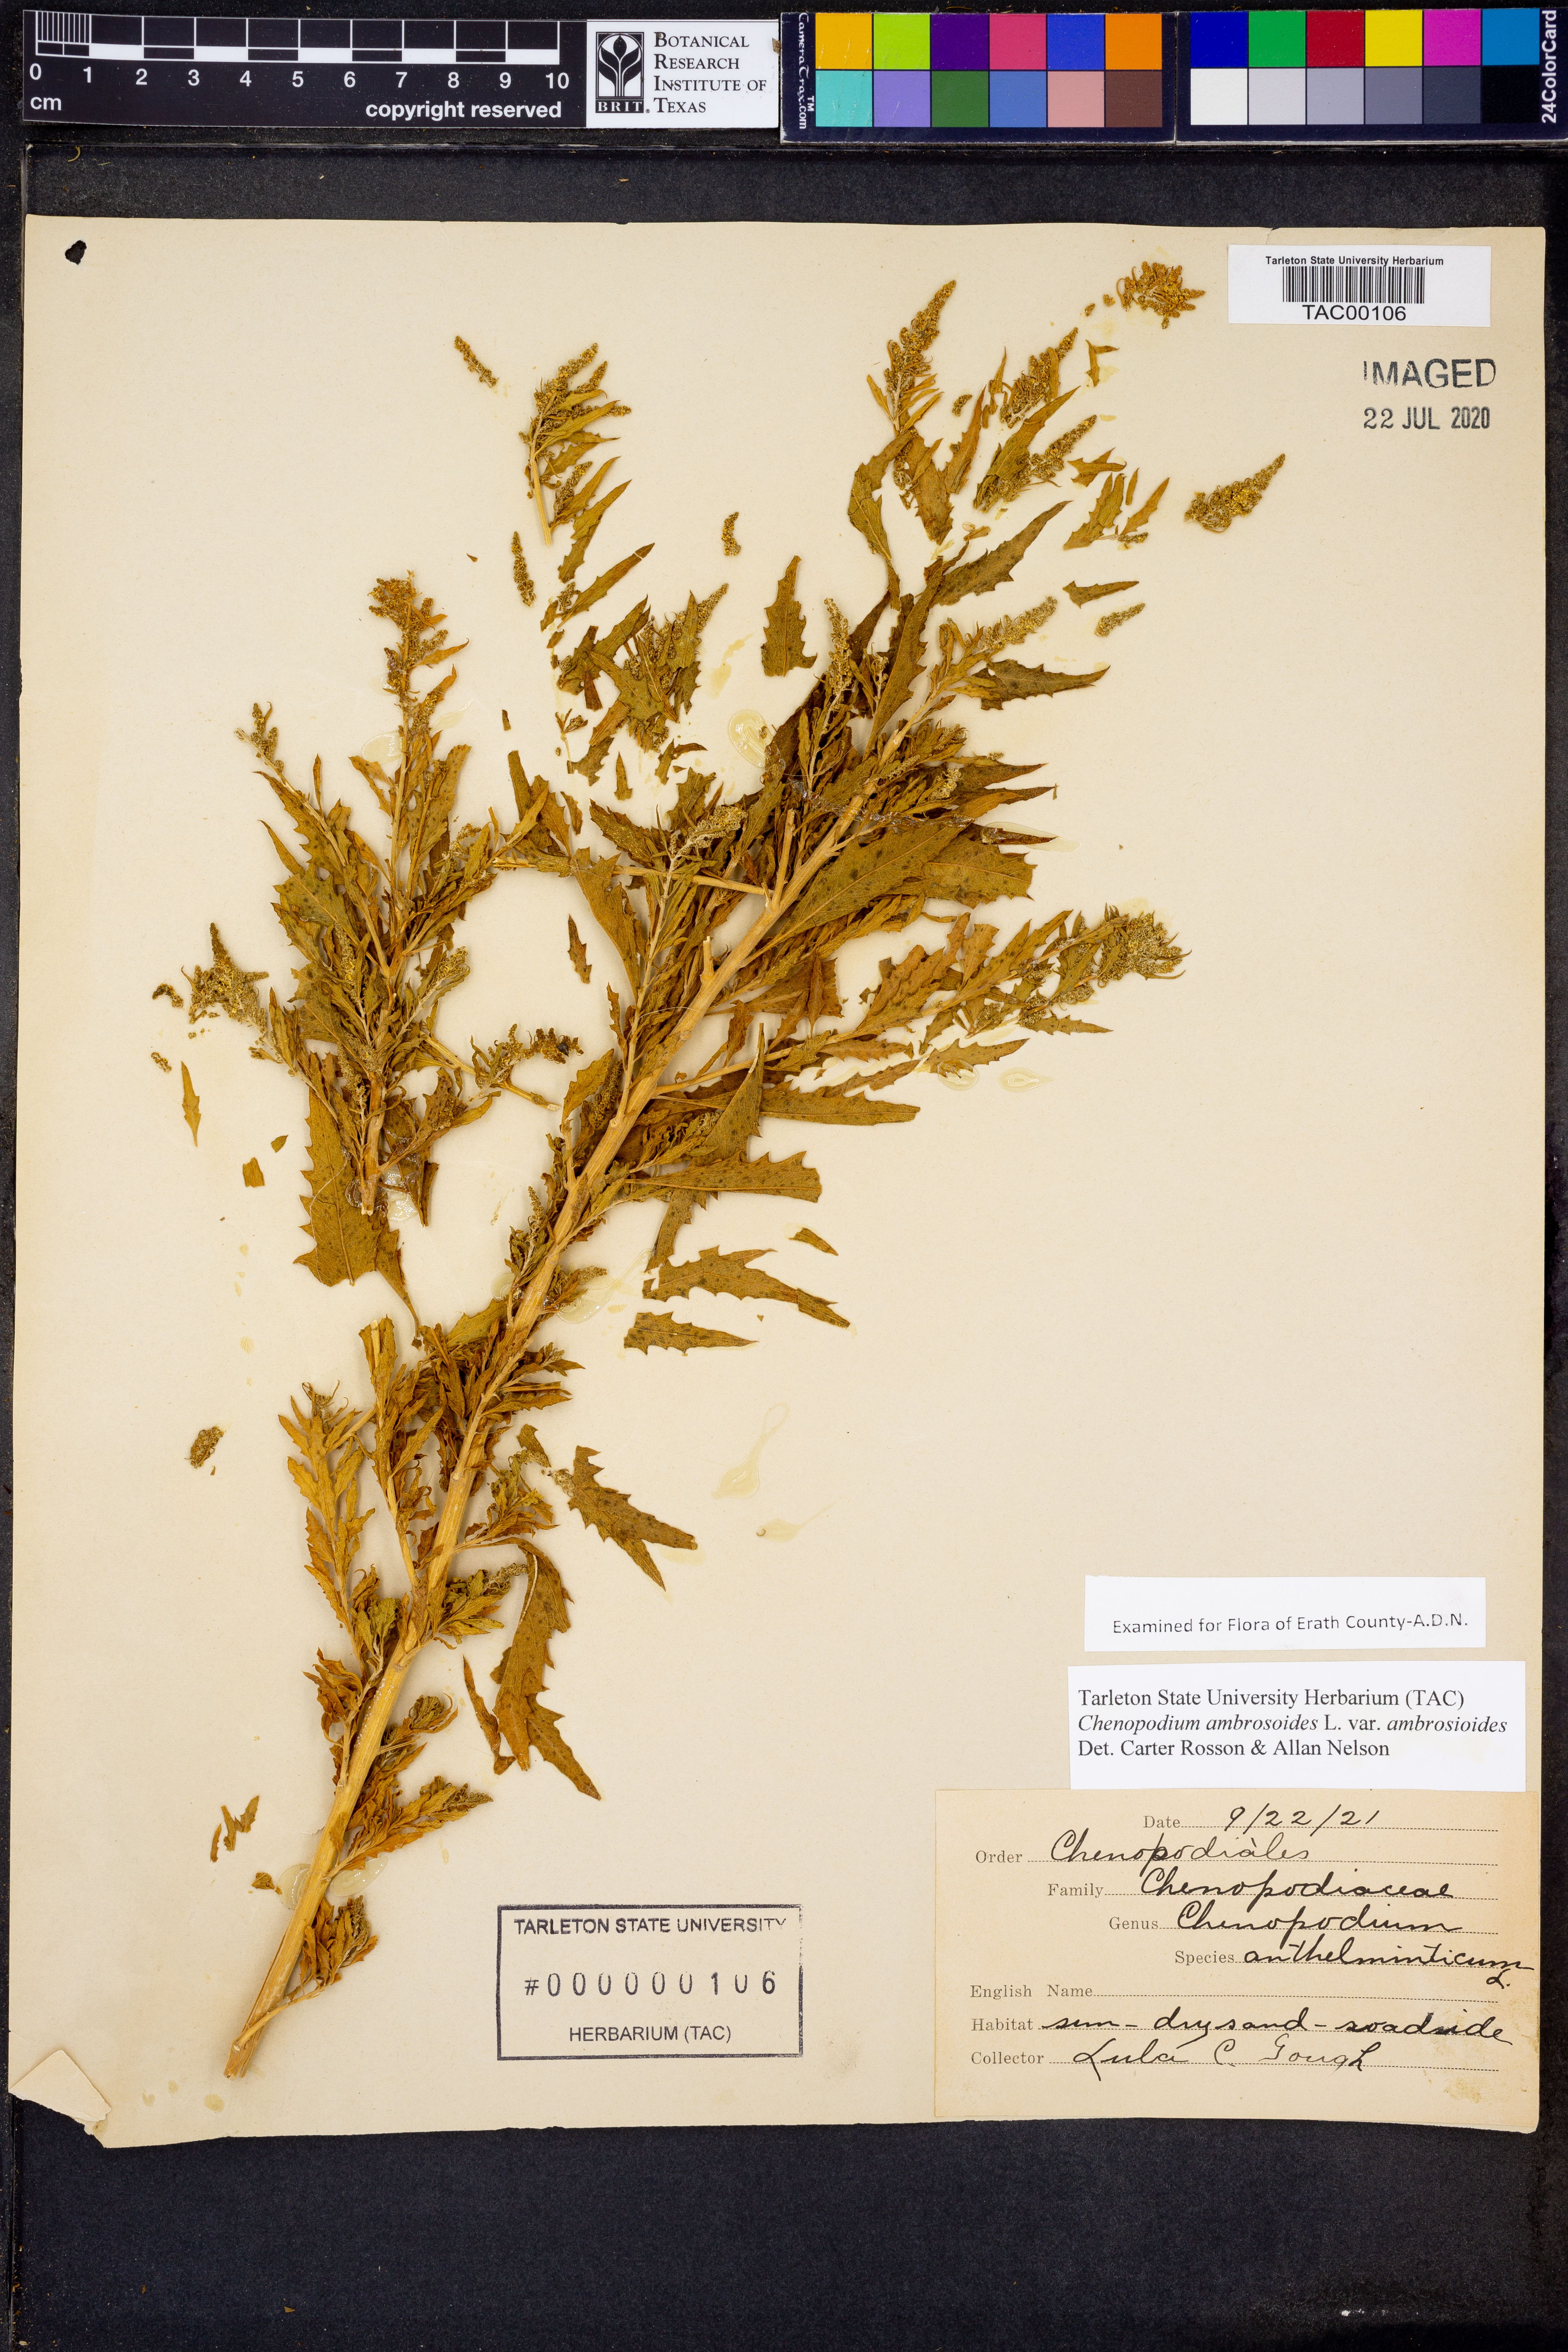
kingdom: Plantae
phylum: Tracheophyta
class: Magnoliopsida
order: Caryophyllales
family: Amaranthaceae
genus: Dysphania
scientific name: Dysphania ambrosioides
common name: Wormseed
